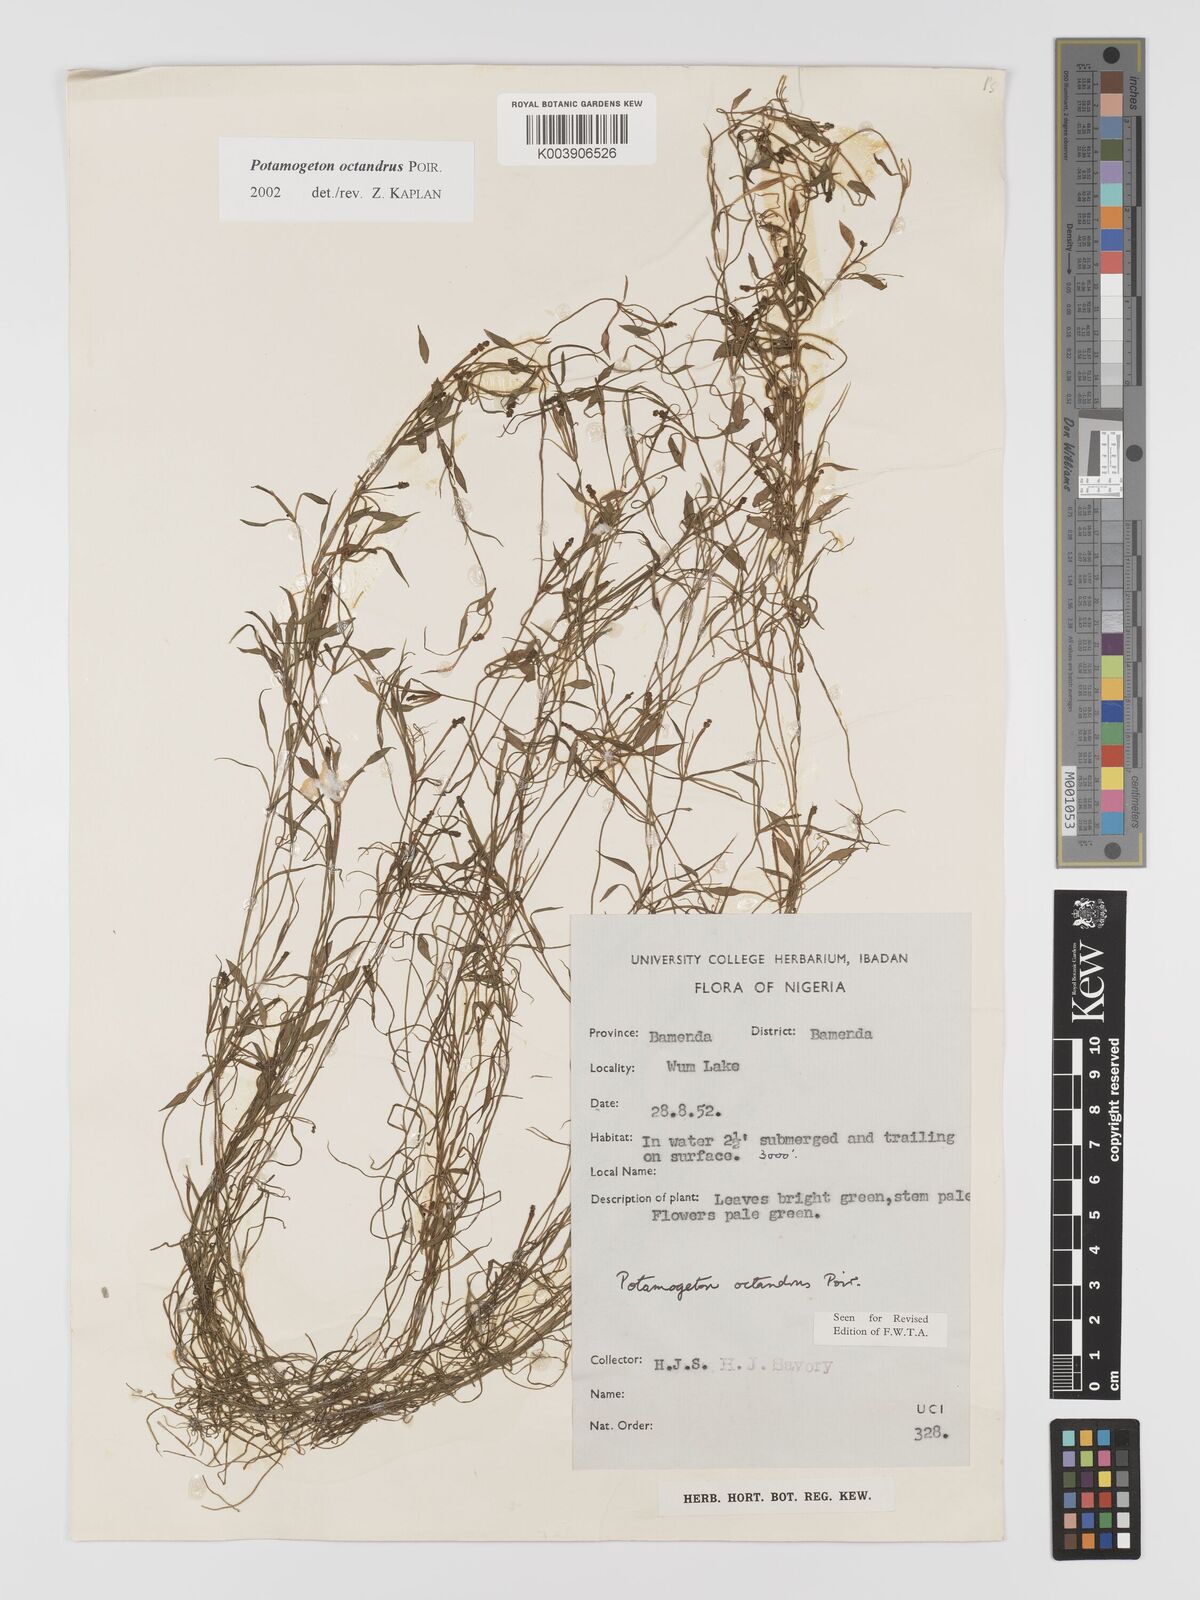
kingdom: Plantae
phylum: Tracheophyta
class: Liliopsida
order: Alismatales
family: Potamogetonaceae
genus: Potamogeton
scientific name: Potamogeton octandrus
